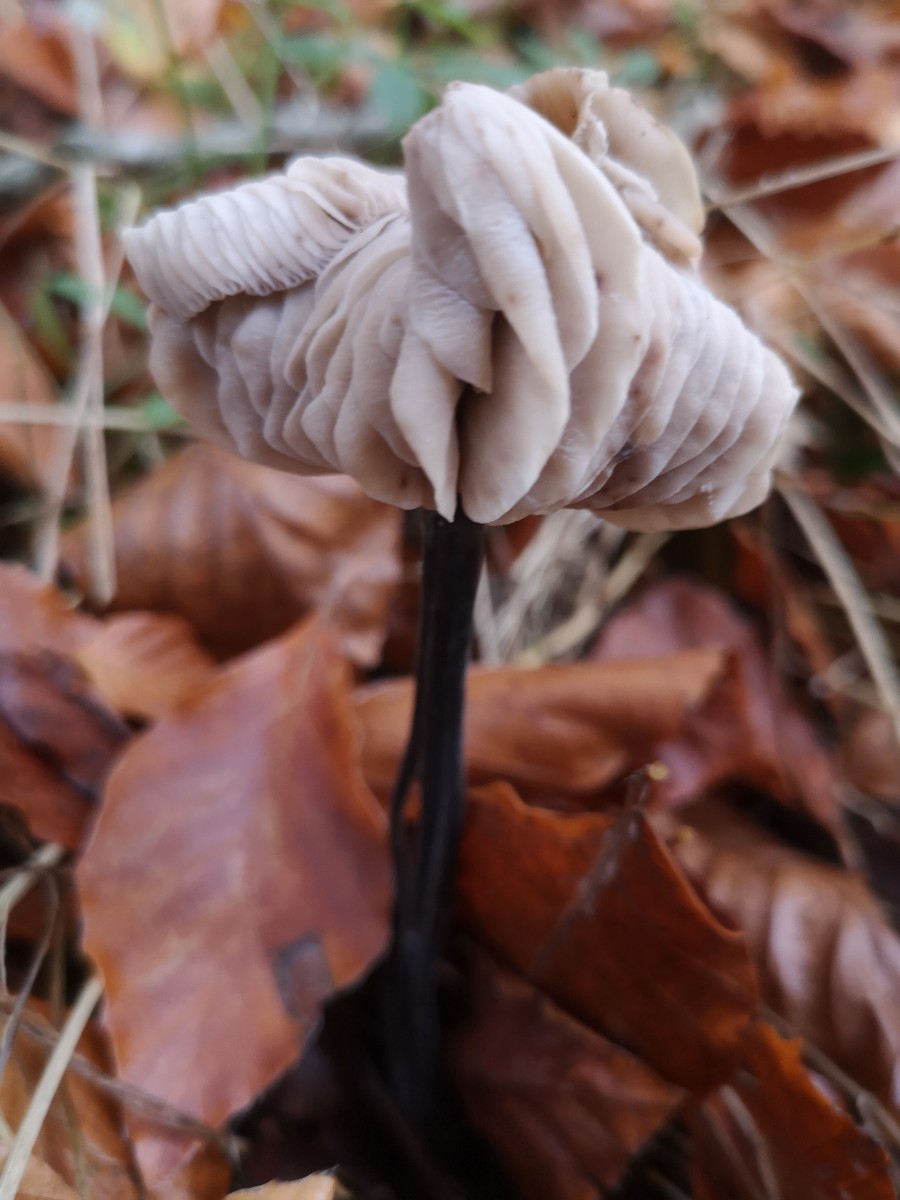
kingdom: Fungi
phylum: Basidiomycota
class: Agaricomycetes
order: Agaricales
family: Omphalotaceae
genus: Mycetinis
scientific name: Mycetinis alliaceus
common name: stor løghat
